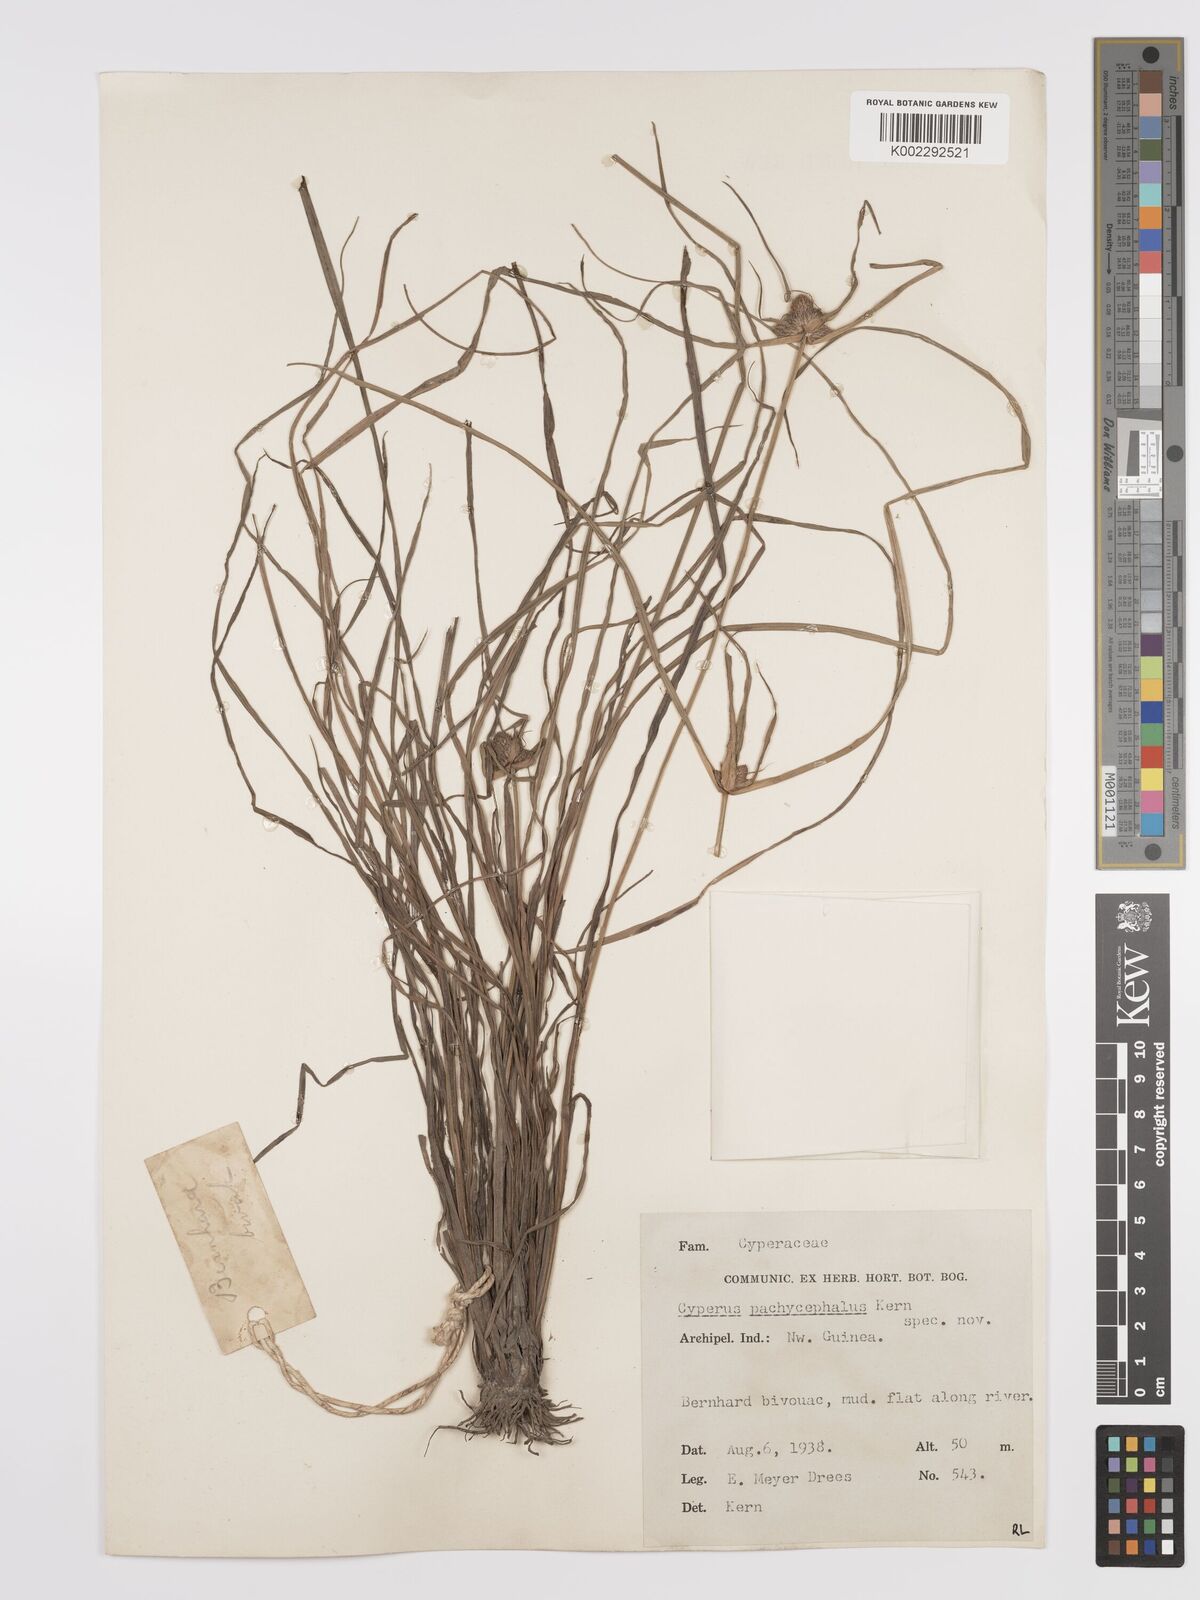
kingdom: Plantae
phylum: Tracheophyta
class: Liliopsida
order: Poales
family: Cyperaceae
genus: Cyperus
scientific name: Cyperus pachycephalus
